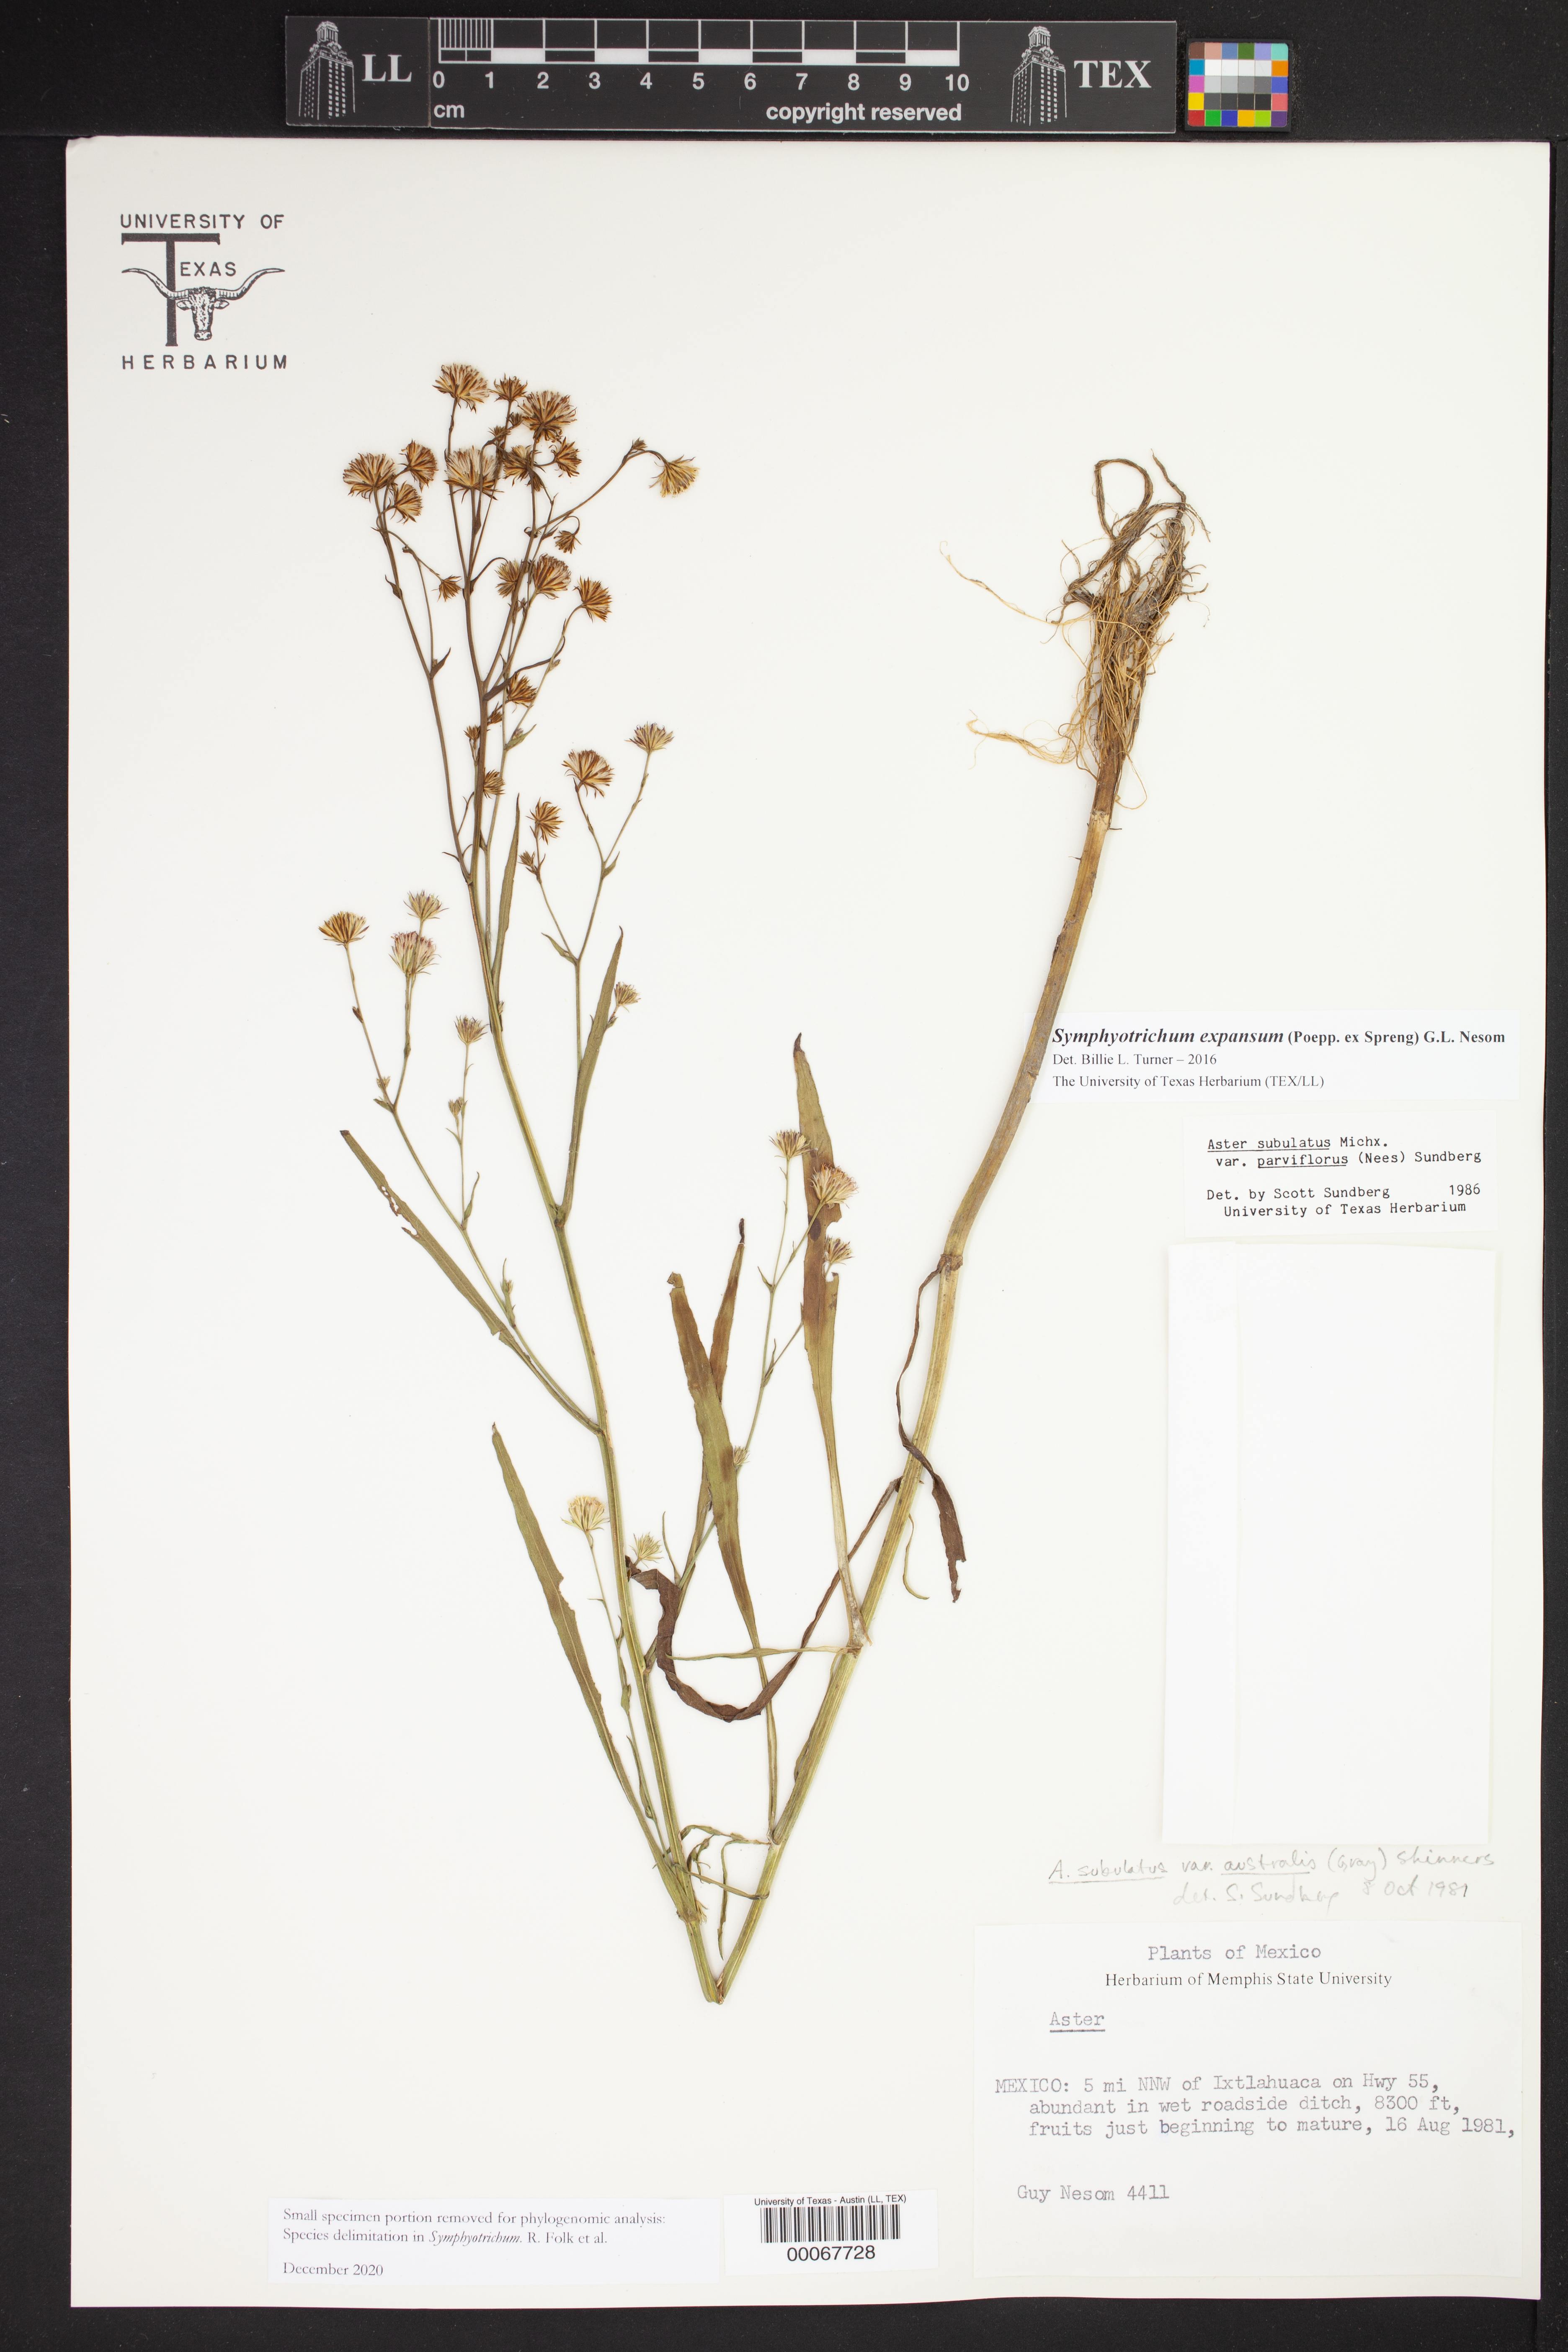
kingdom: Plantae
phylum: Tracheophyta
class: Magnoliopsida
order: Asterales
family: Asteraceae
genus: Symphyotrichum
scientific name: Symphyotrichum expansum
